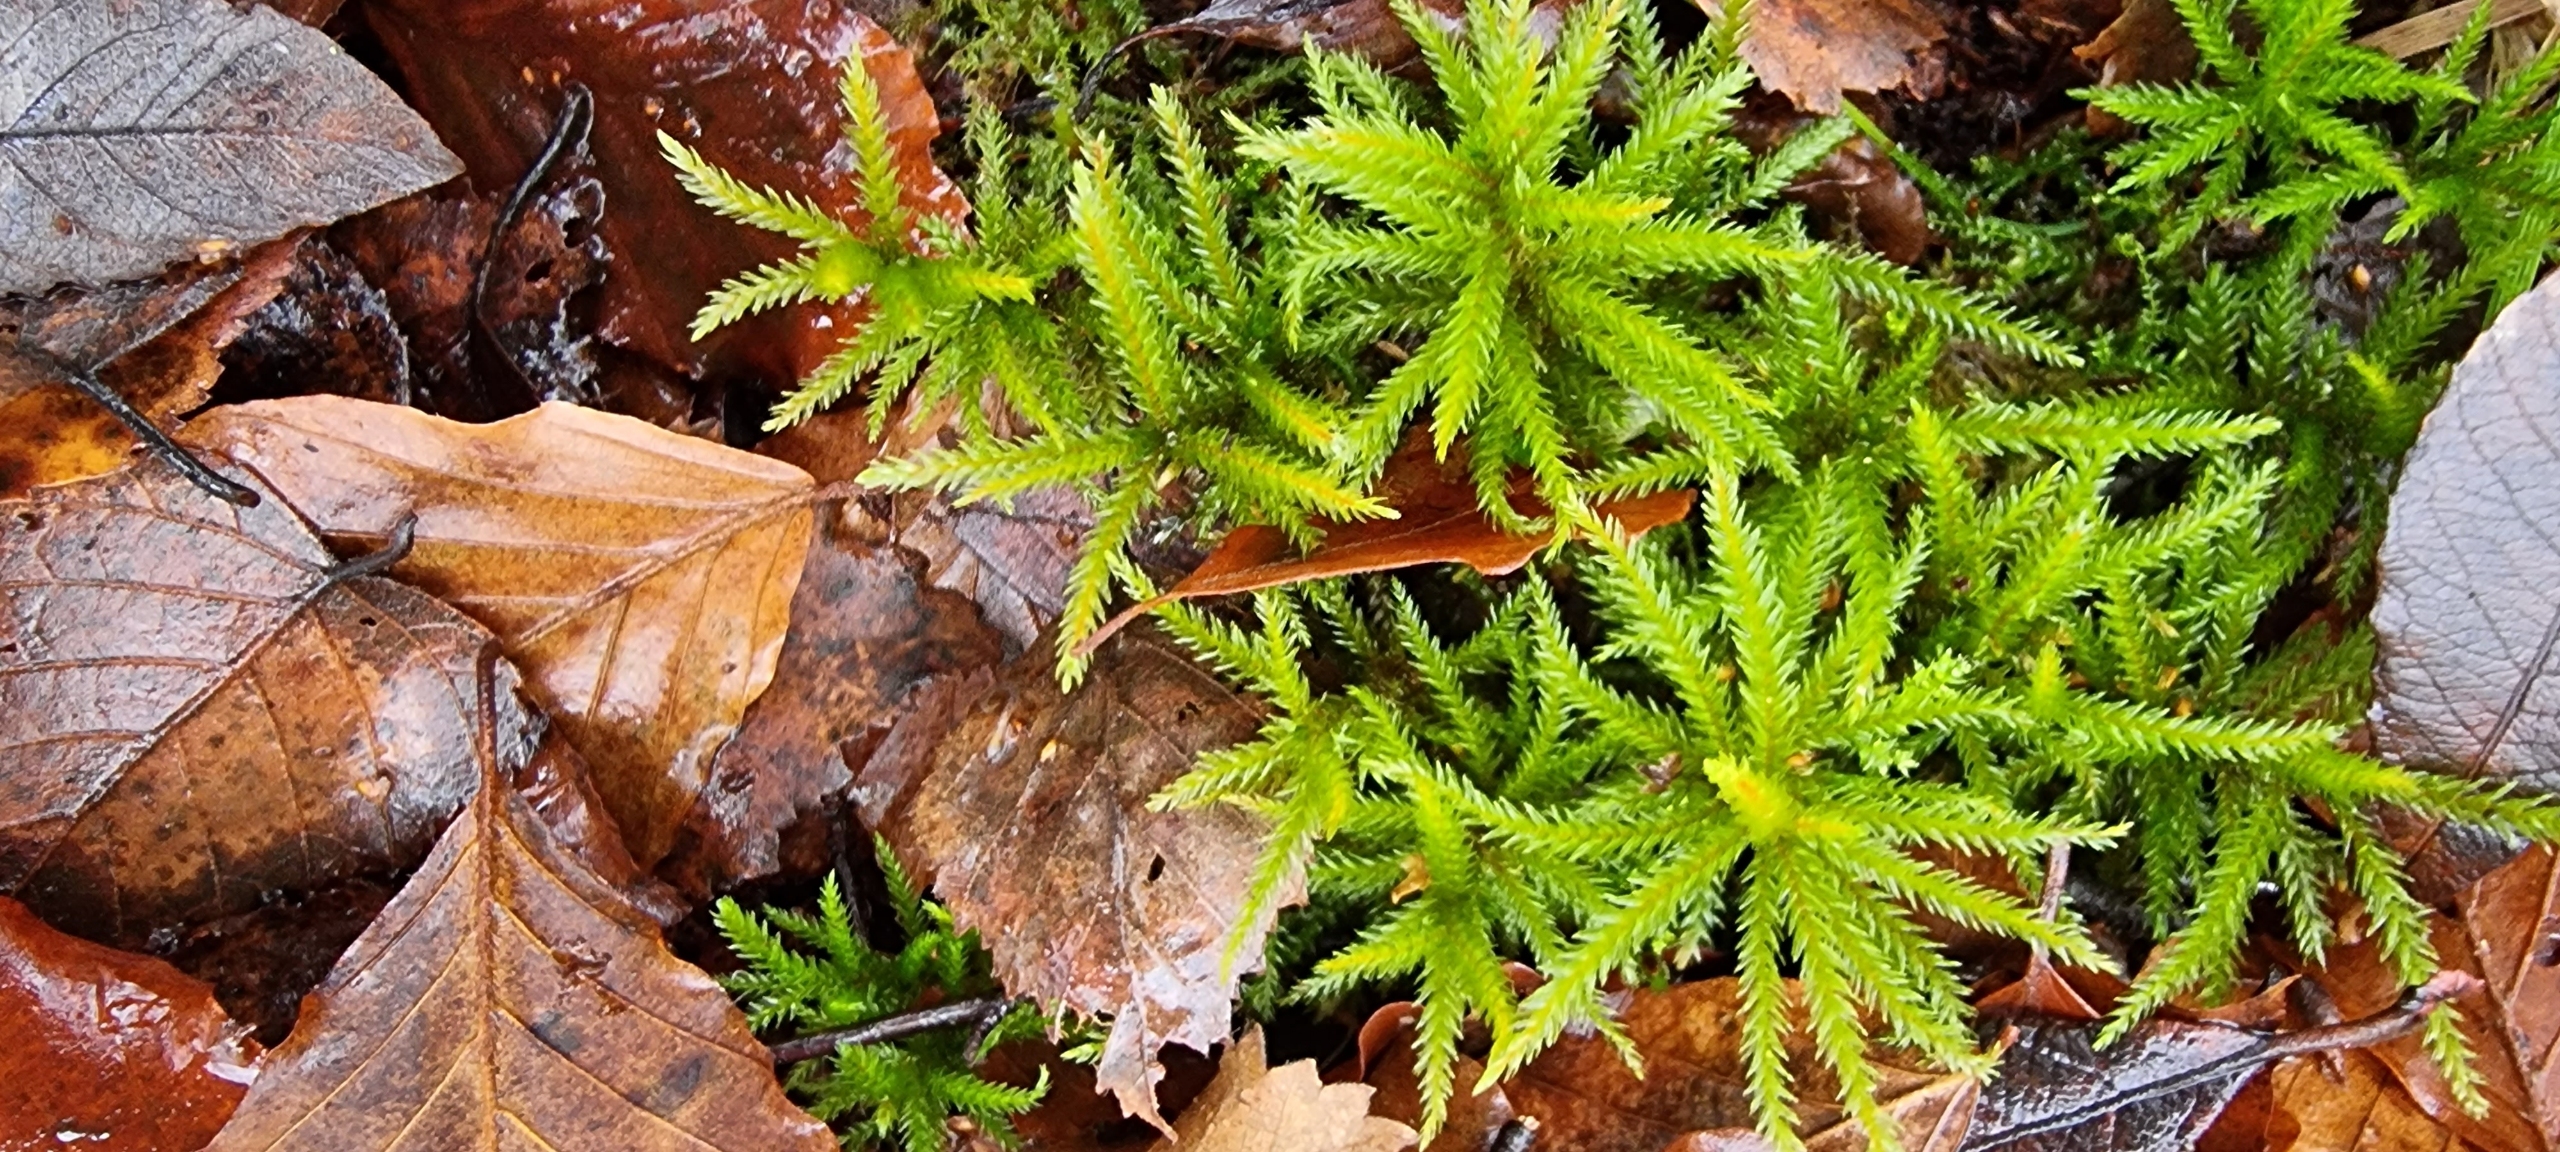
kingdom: Plantae
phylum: Bryophyta
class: Bryopsida
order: Hypnales
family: Climaciaceae
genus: Climacium
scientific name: Climacium dendroides
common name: Stor engkost
